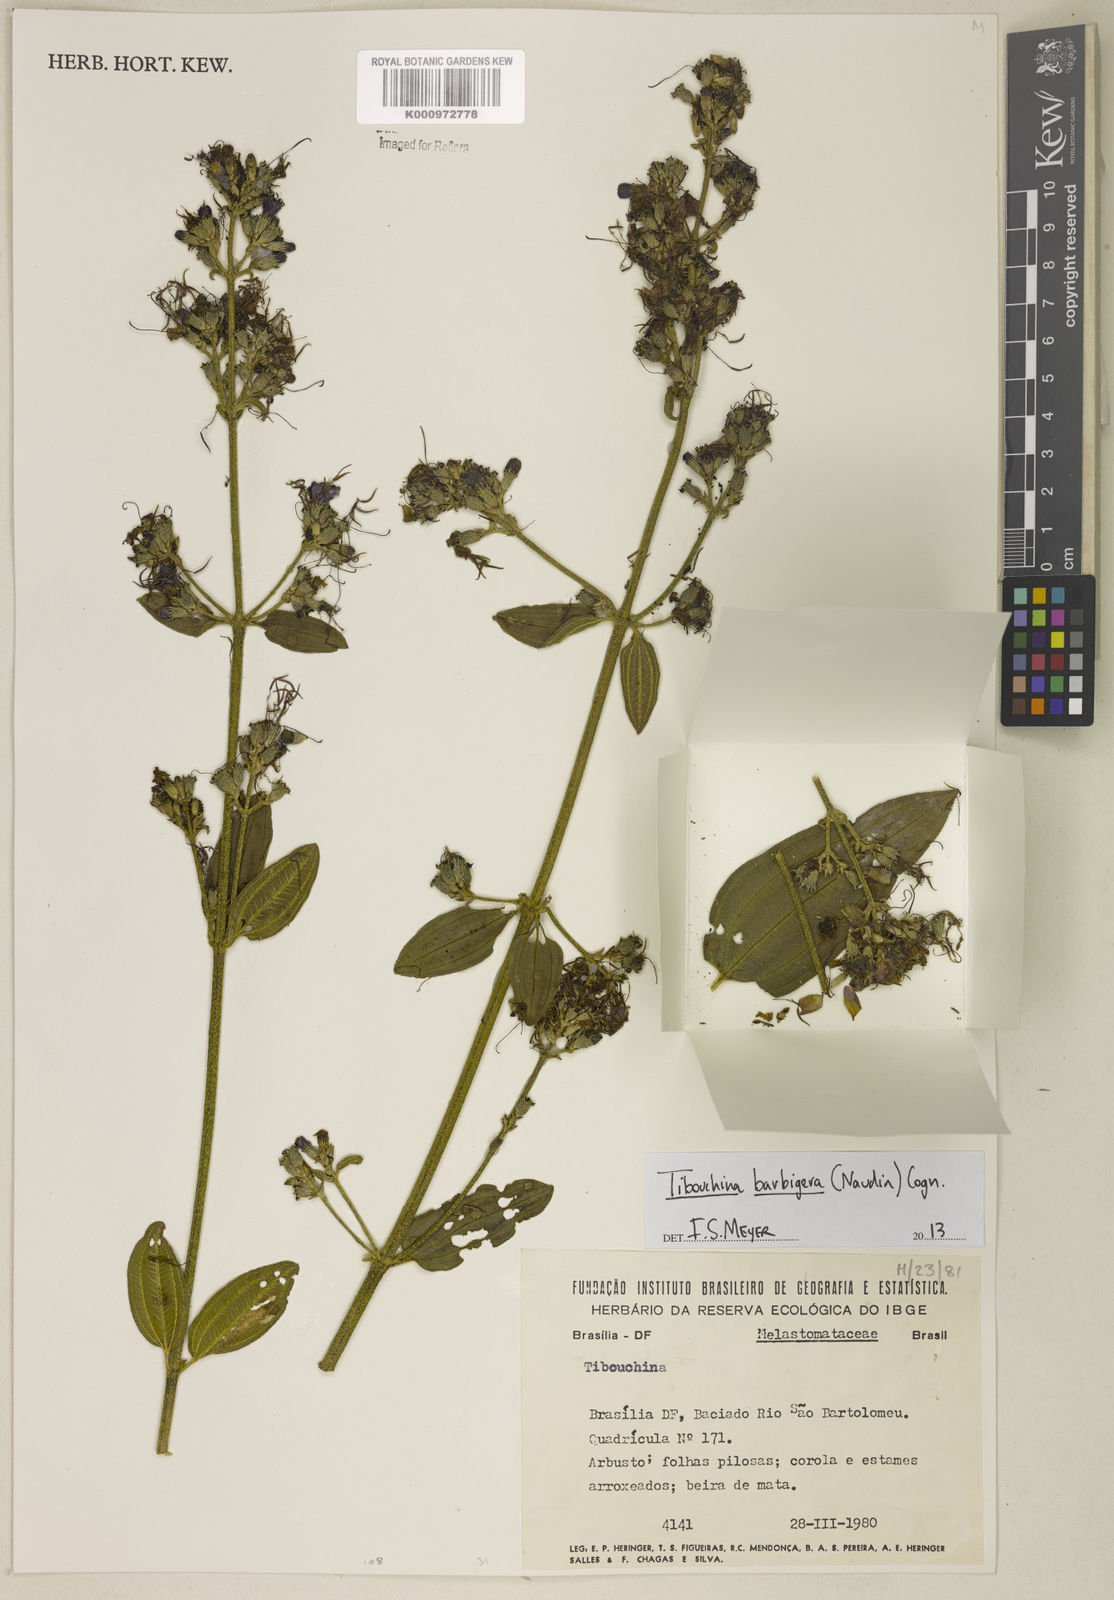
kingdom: Plantae
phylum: Tracheophyta
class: Magnoliopsida
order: Myrtales
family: Melastomataceae
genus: Pleroma
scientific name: Pleroma barbigerum
